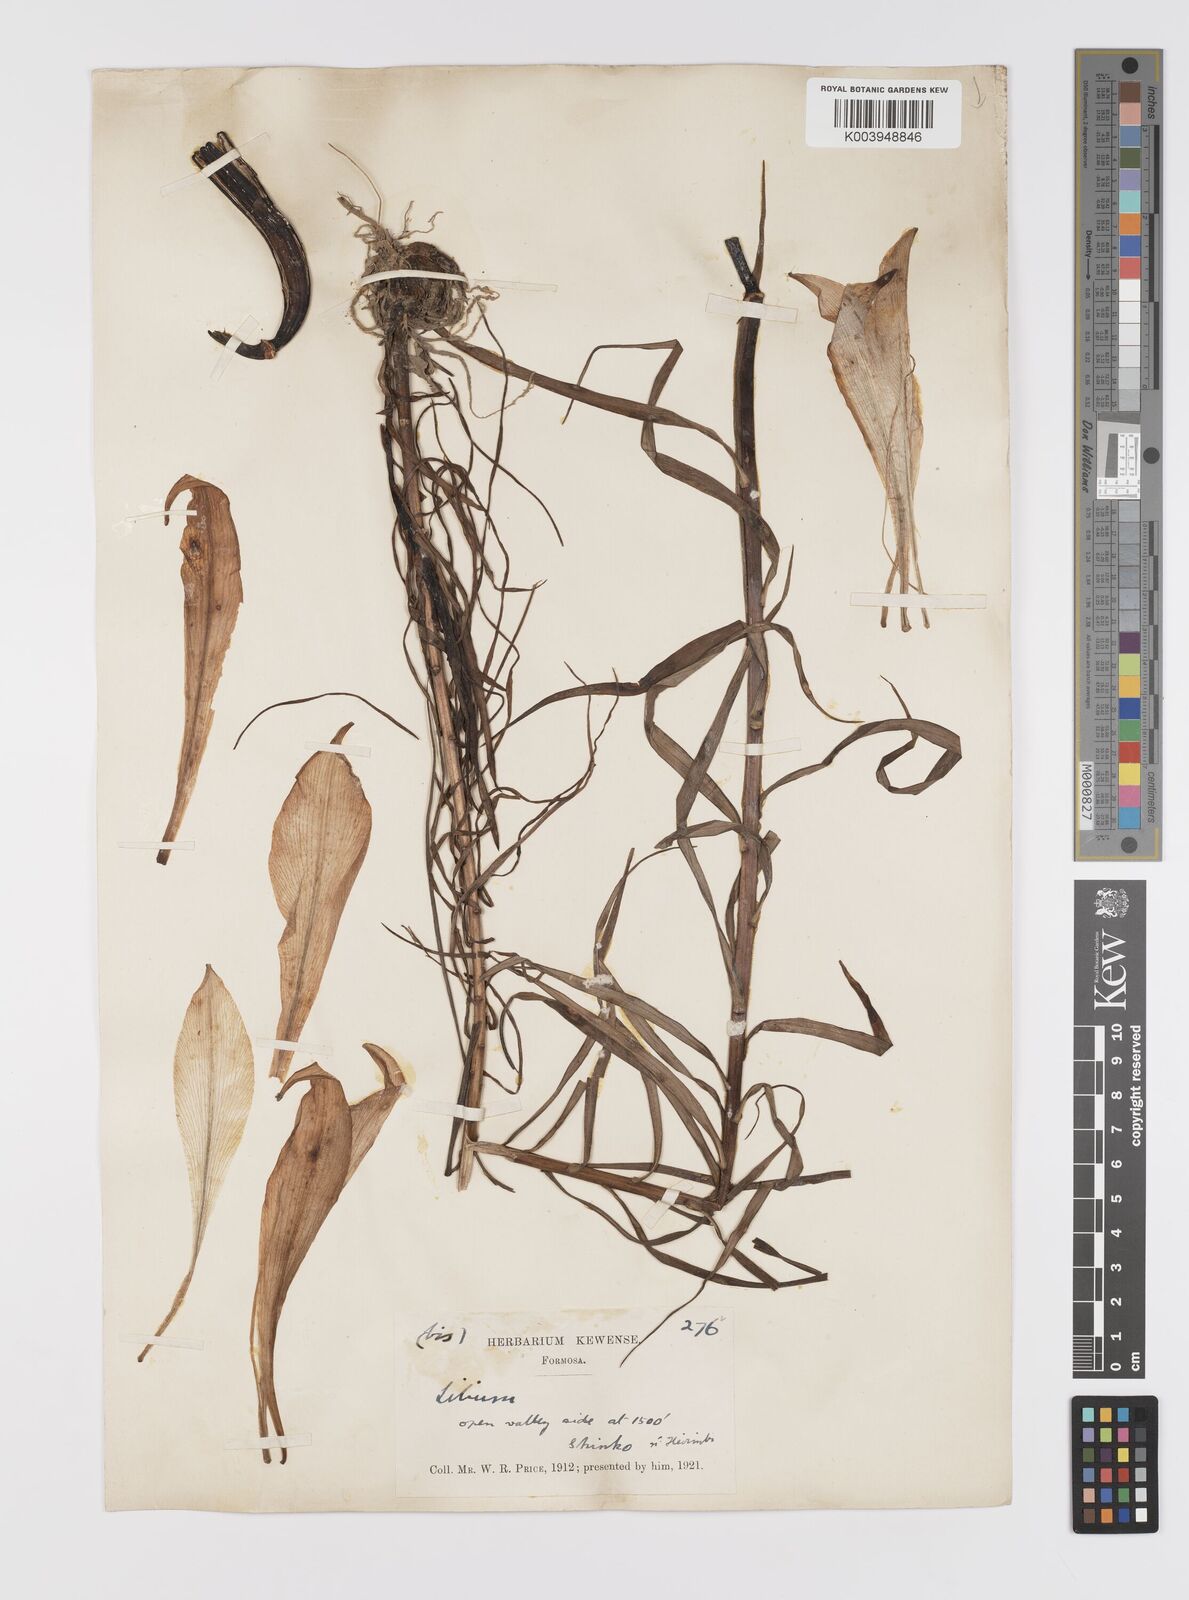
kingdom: Plantae
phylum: Tracheophyta
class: Liliopsida
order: Liliales
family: Liliaceae
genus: Lilium
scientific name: Lilium formosanum
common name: Formosa lily
